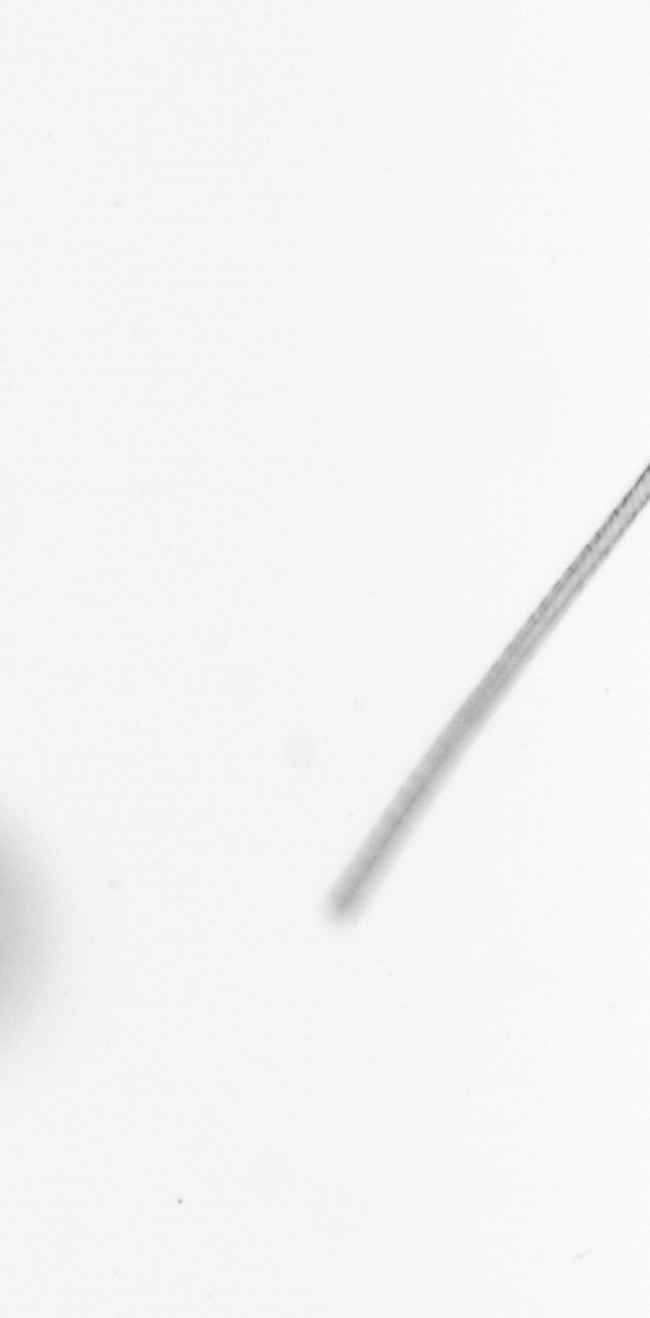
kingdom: Chromista
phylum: Ochrophyta
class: Bacillariophyceae
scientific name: Bacillariophyceae
